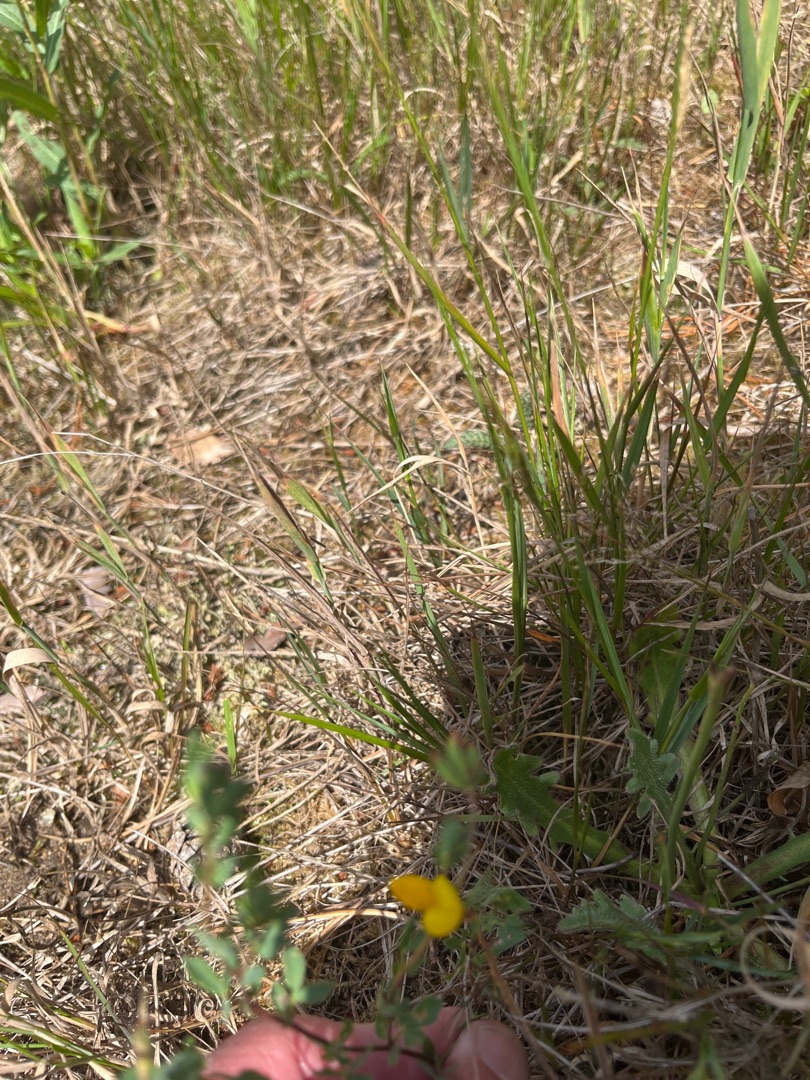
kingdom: Plantae
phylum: Tracheophyta
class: Magnoliopsida
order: Fabales
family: Fabaceae
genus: Lotus
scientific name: Lotus corniculatus
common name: Almindelig kællingetand
